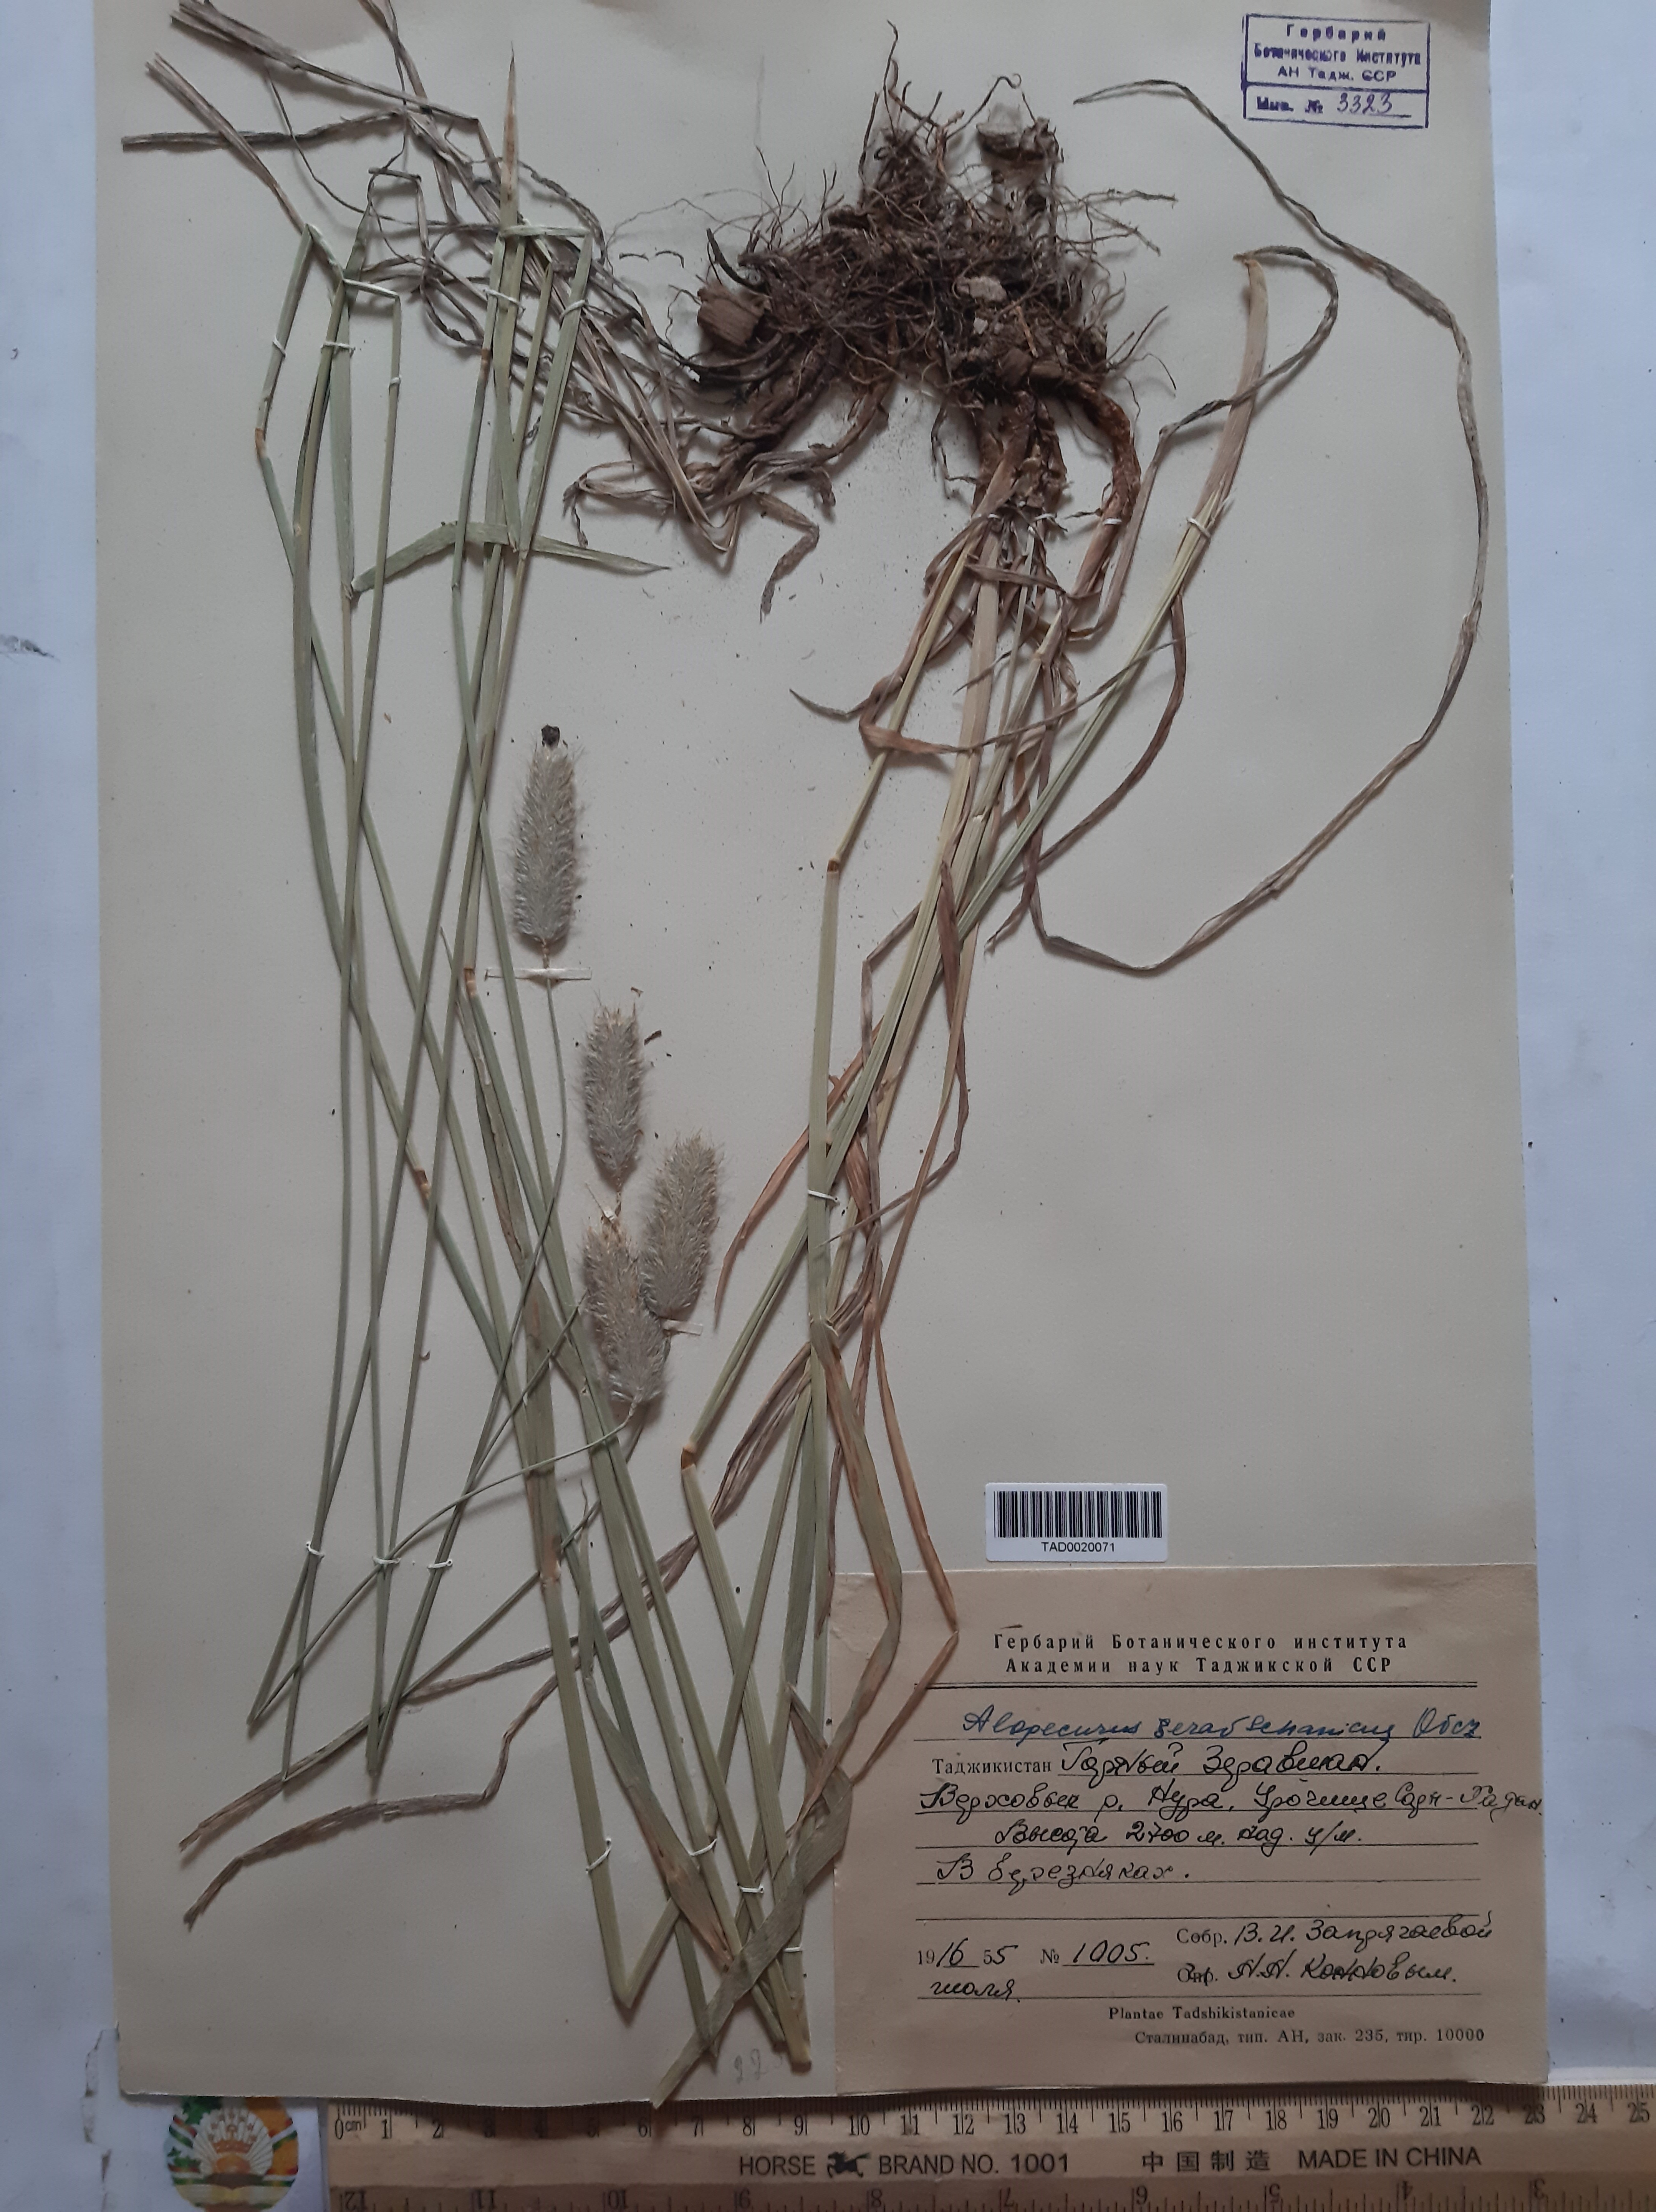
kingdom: Plantae
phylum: Tracheophyta
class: Liliopsida
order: Poales
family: Poaceae
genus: Alopecurus
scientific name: Alopecurus pratensis
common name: Meadow foxtail
